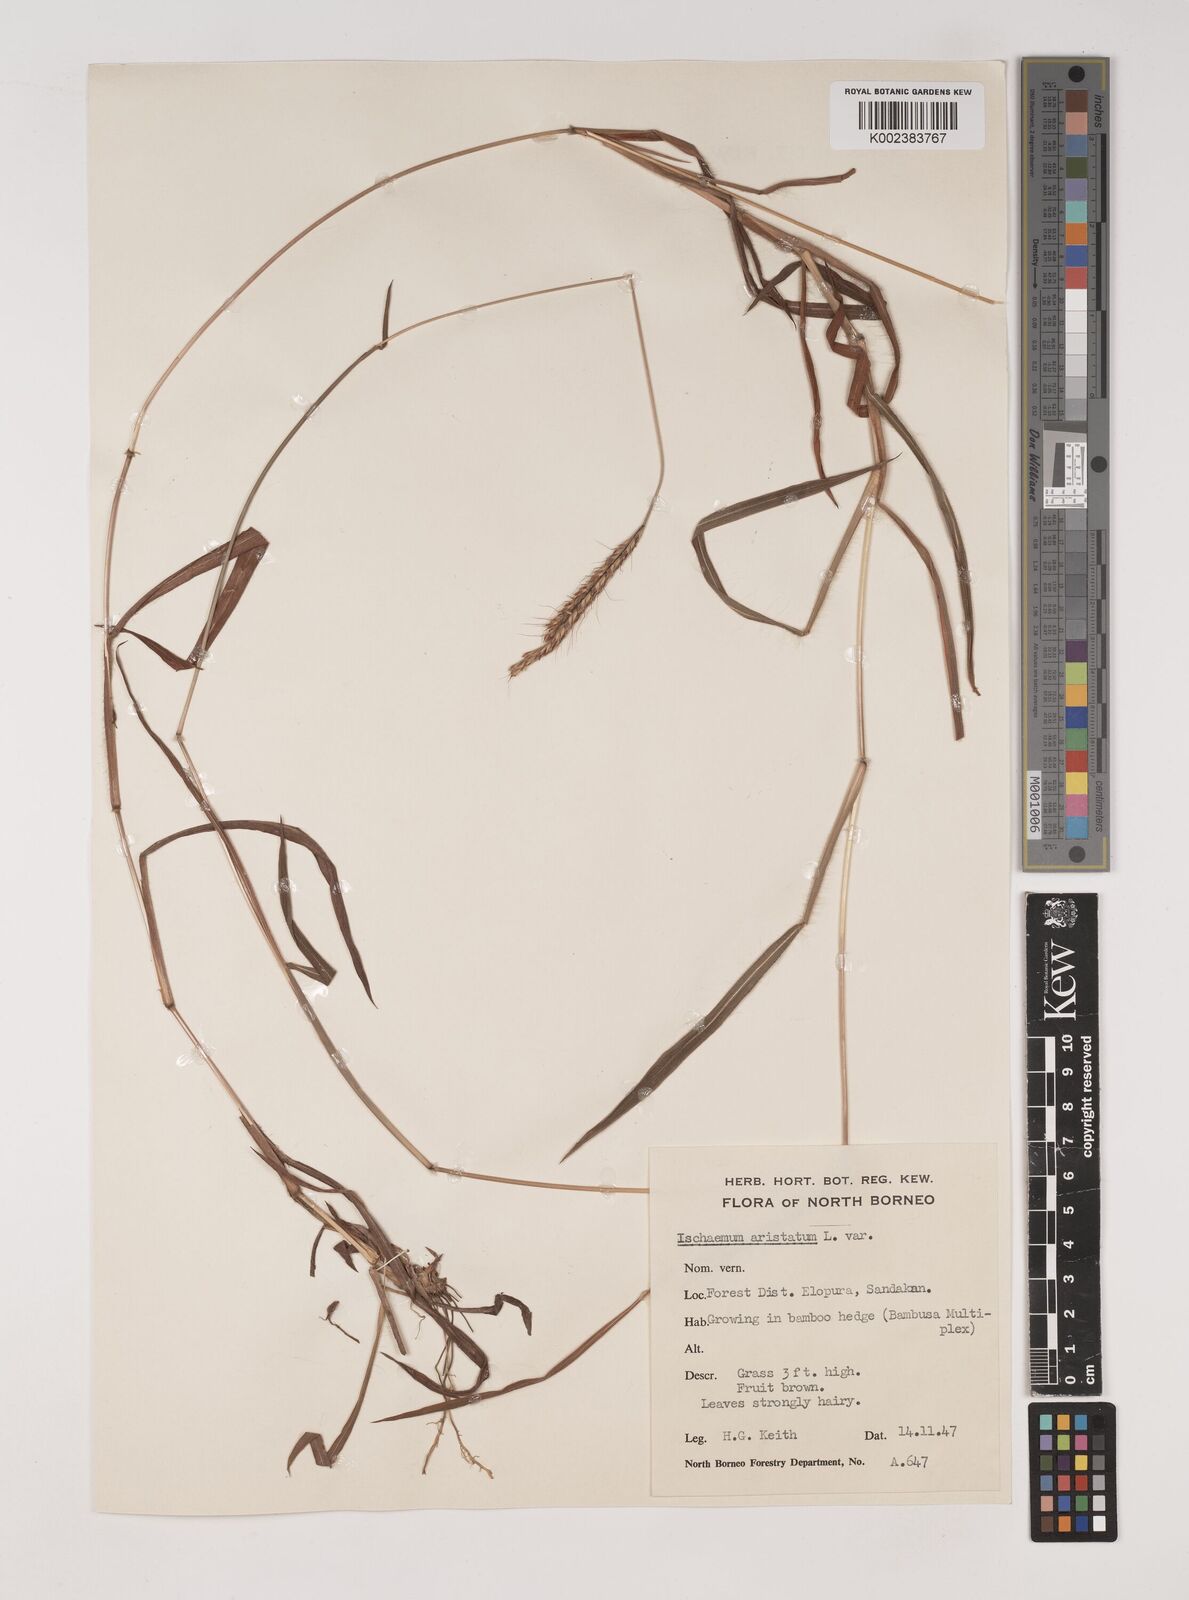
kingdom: Plantae
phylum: Tracheophyta
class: Liliopsida
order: Poales
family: Poaceae
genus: Polytrias
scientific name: Polytrias indica
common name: Indian murainagrass
